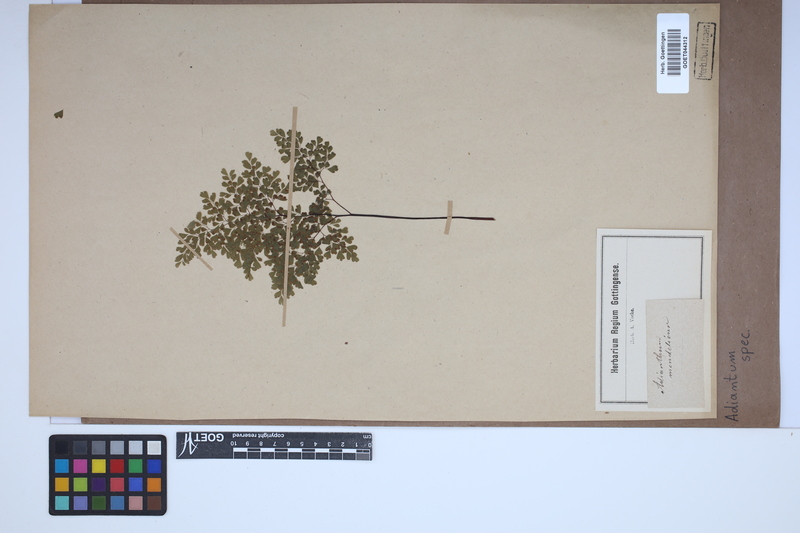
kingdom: Plantae
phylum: Tracheophyta
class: Polypodiopsida
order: Polypodiales
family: Pteridaceae
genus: Adiantum
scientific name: Adiantum
